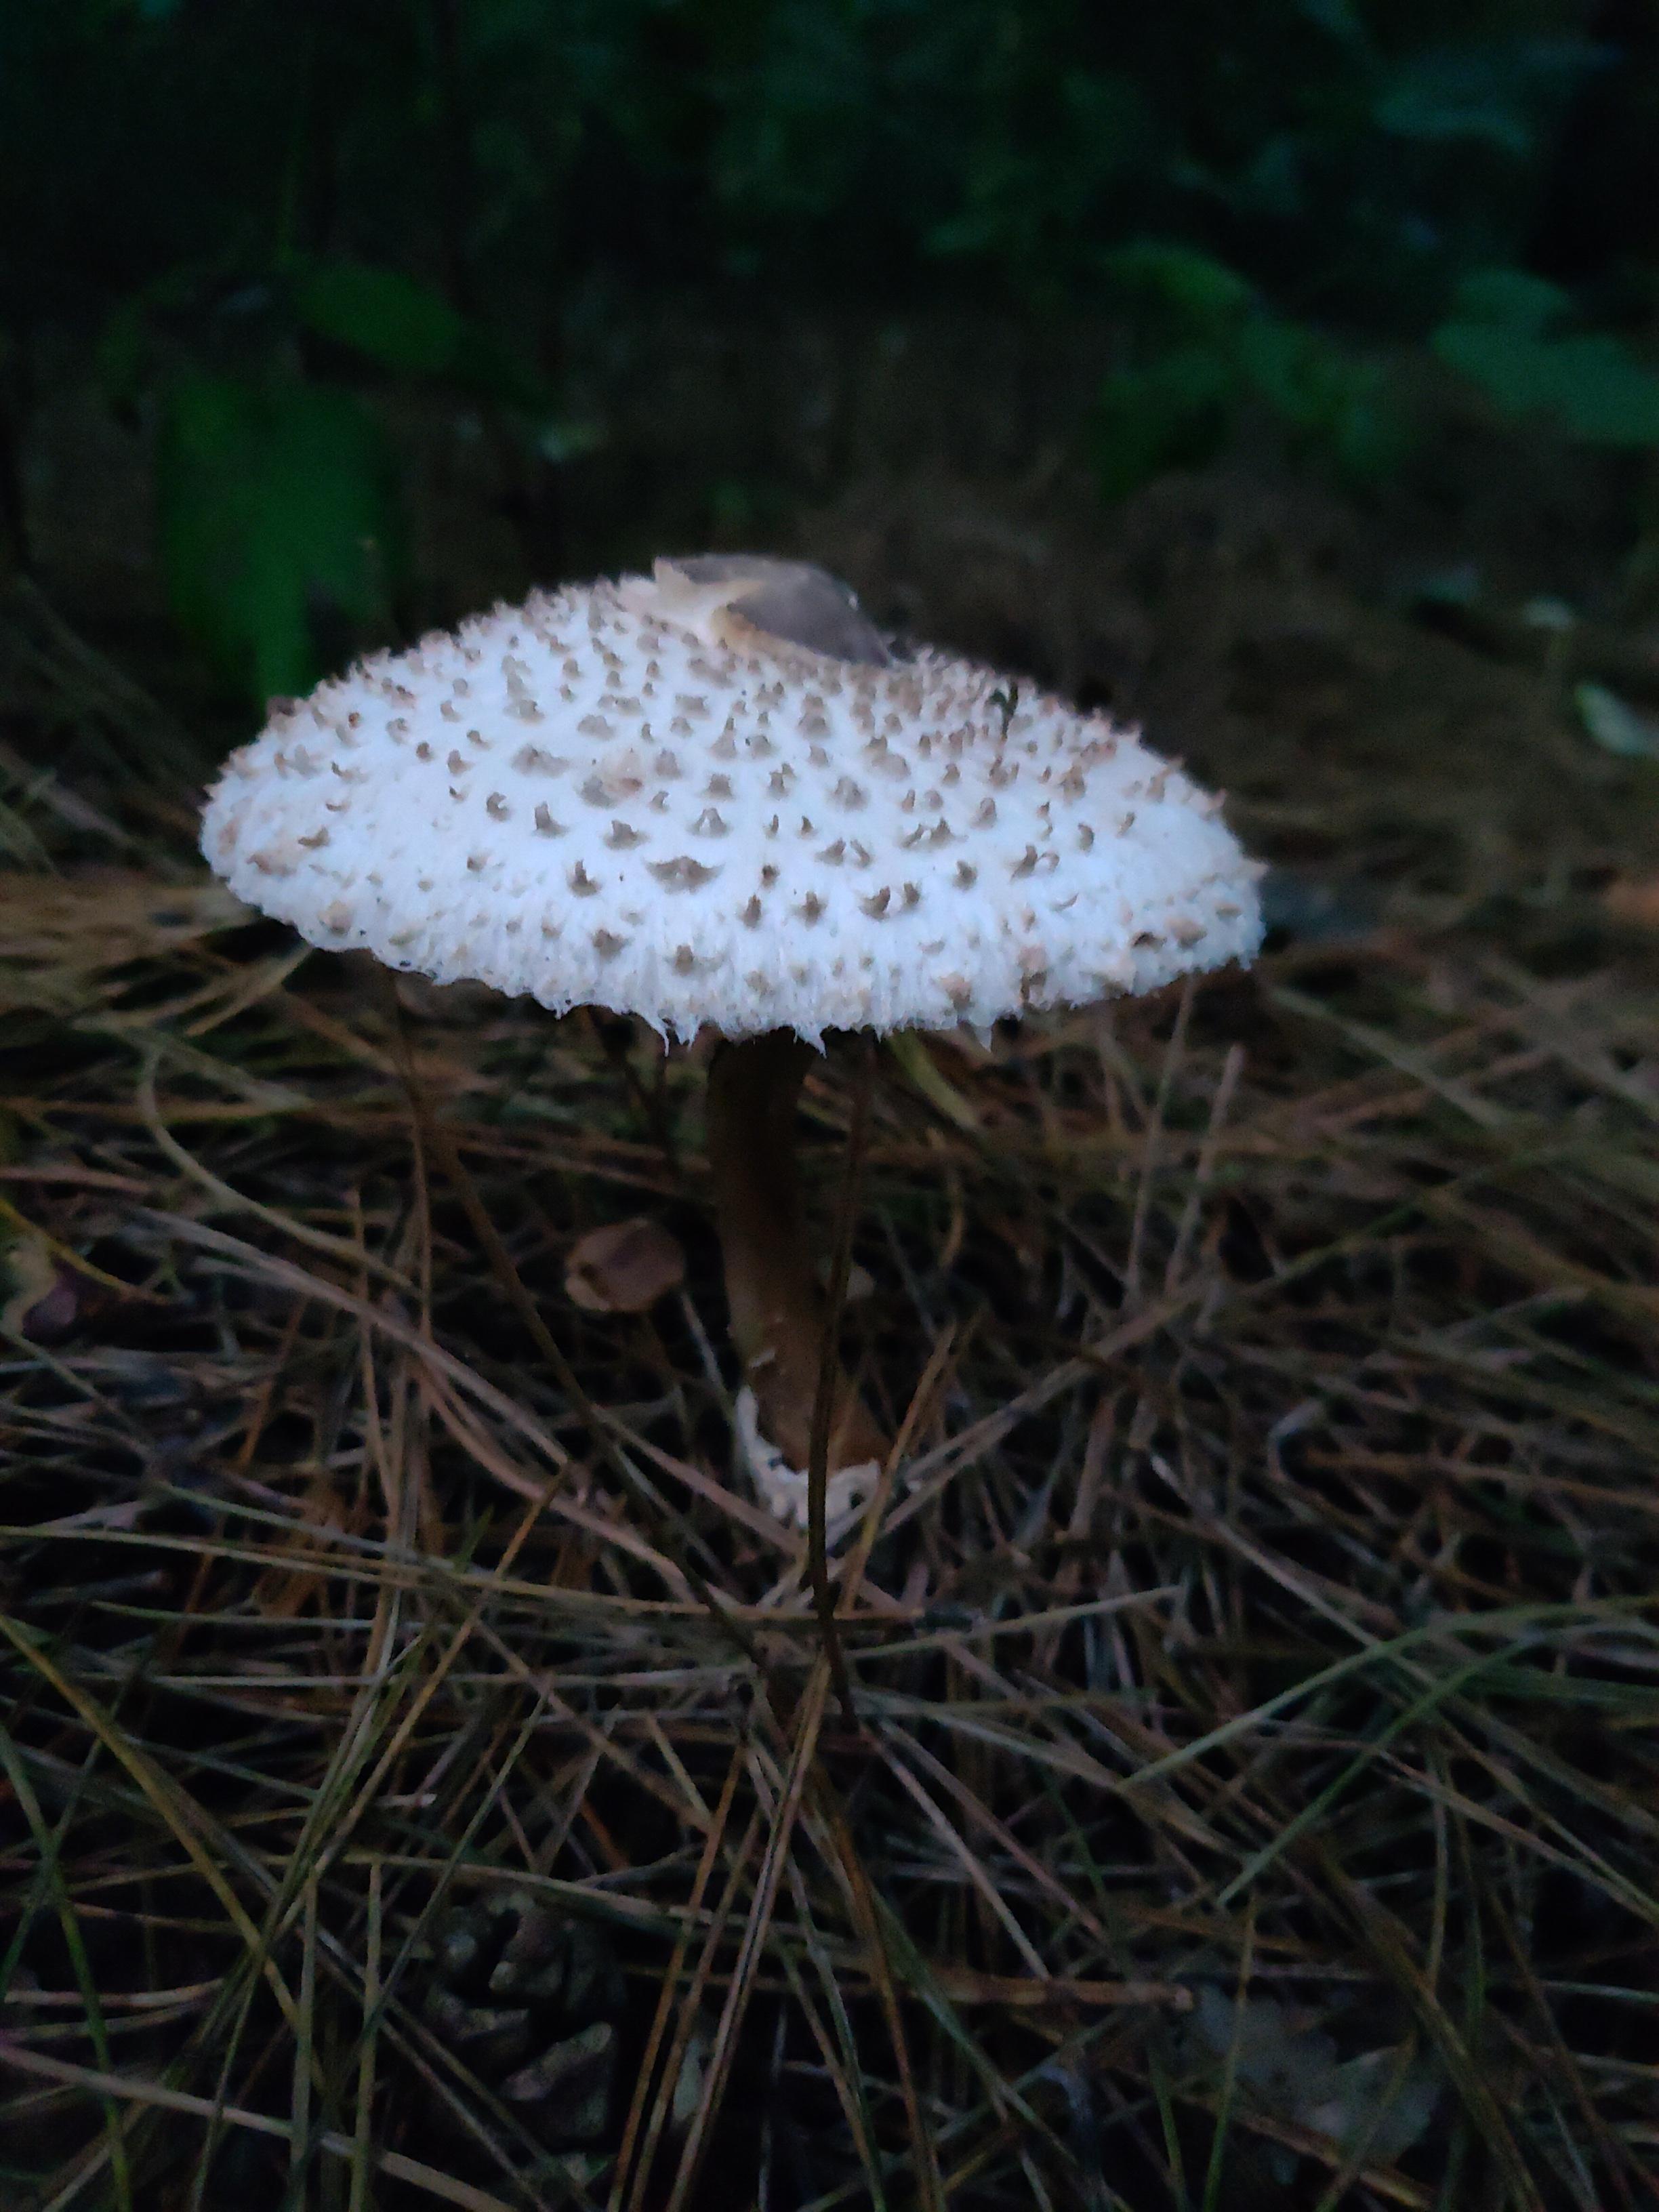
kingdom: Fungi
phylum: Basidiomycota
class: Agaricomycetes
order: Agaricales
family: Agaricaceae
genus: Leucoagaricus
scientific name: Leucoagaricus nympharum
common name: gran-silkehat
